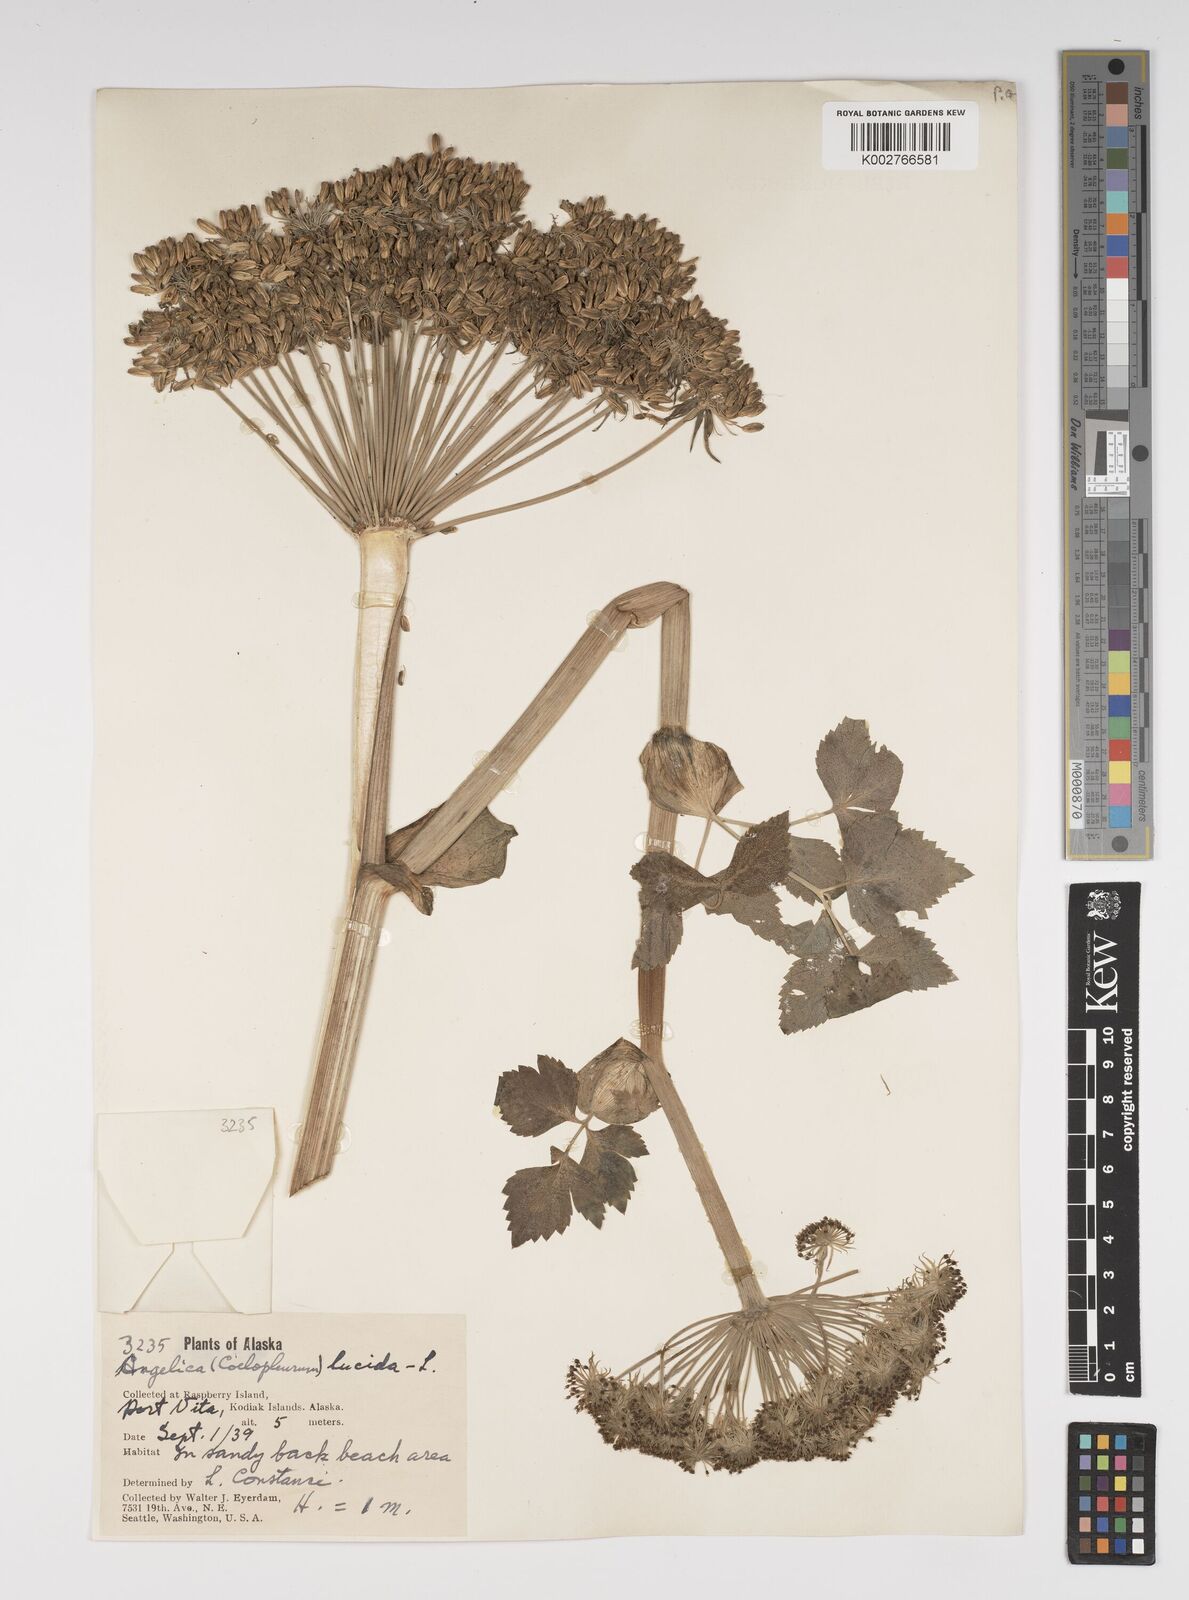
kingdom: Plantae
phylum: Tracheophyta
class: Magnoliopsida
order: Apiales
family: Apiaceae
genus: Angelica
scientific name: Angelica lucida
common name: Seabeach angelica
